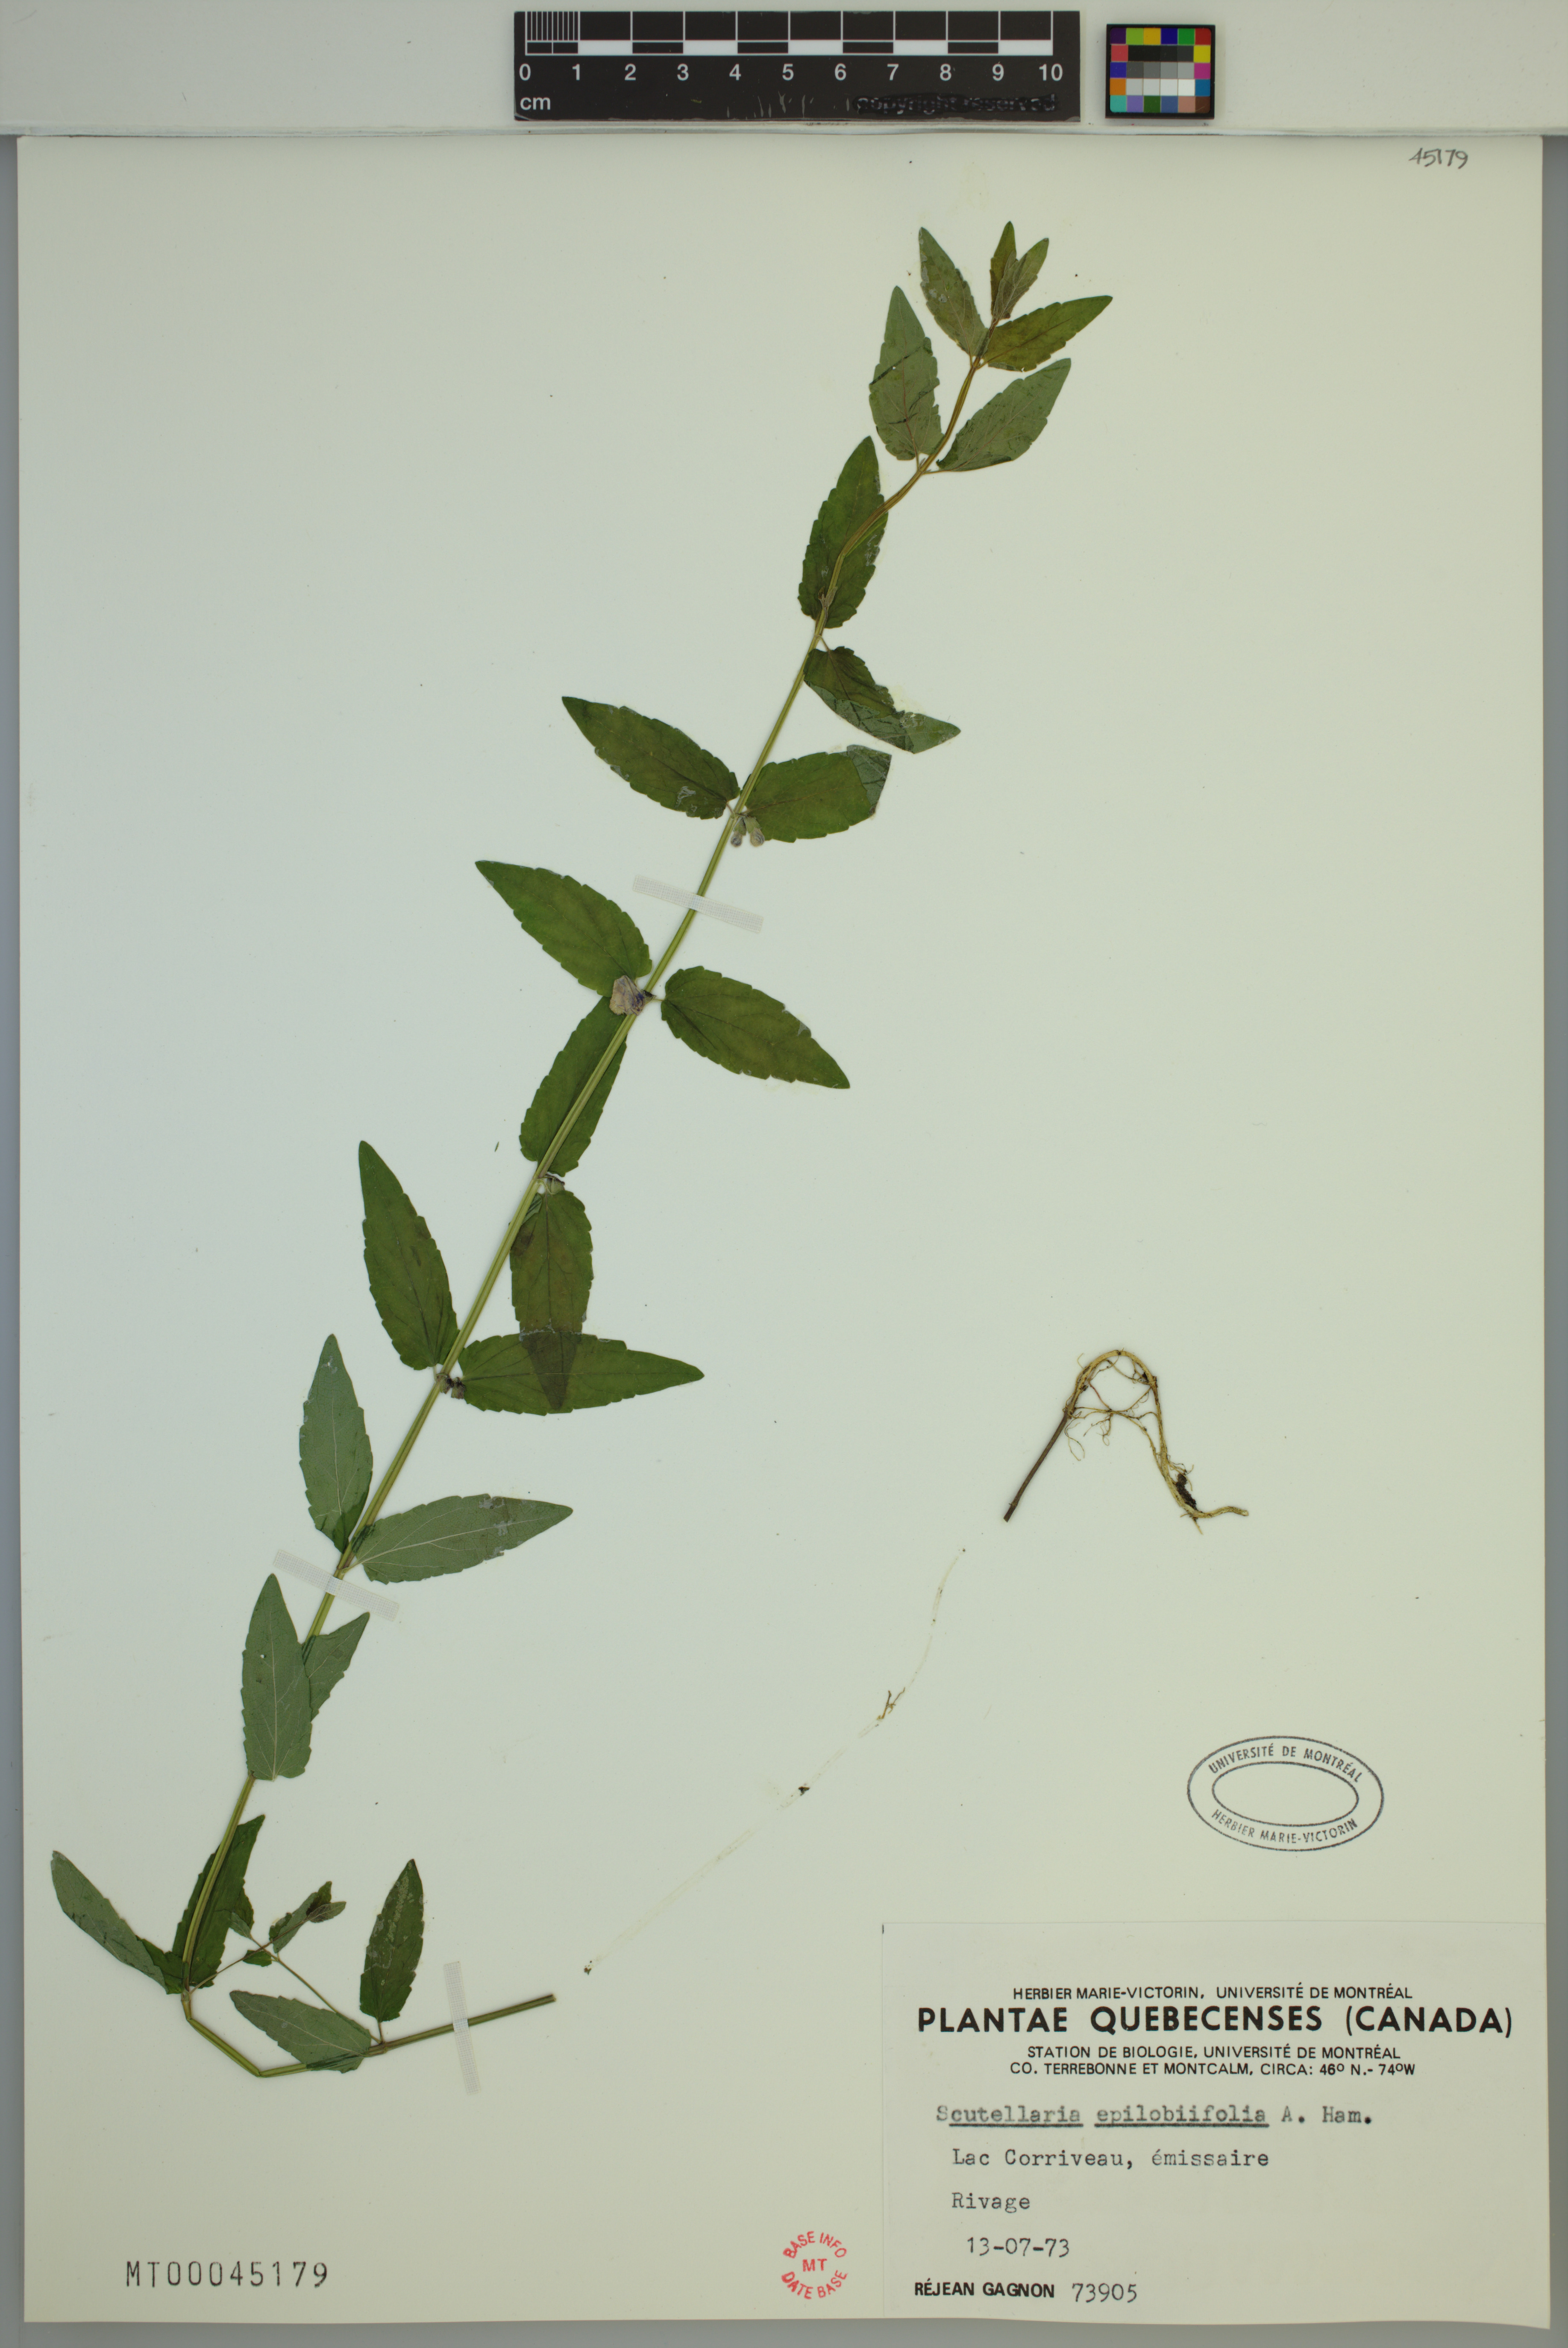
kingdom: Plantae
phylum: Tracheophyta
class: Magnoliopsida
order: Lamiales
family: Lamiaceae
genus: Scutellaria
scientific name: Scutellaria nicholsonii
